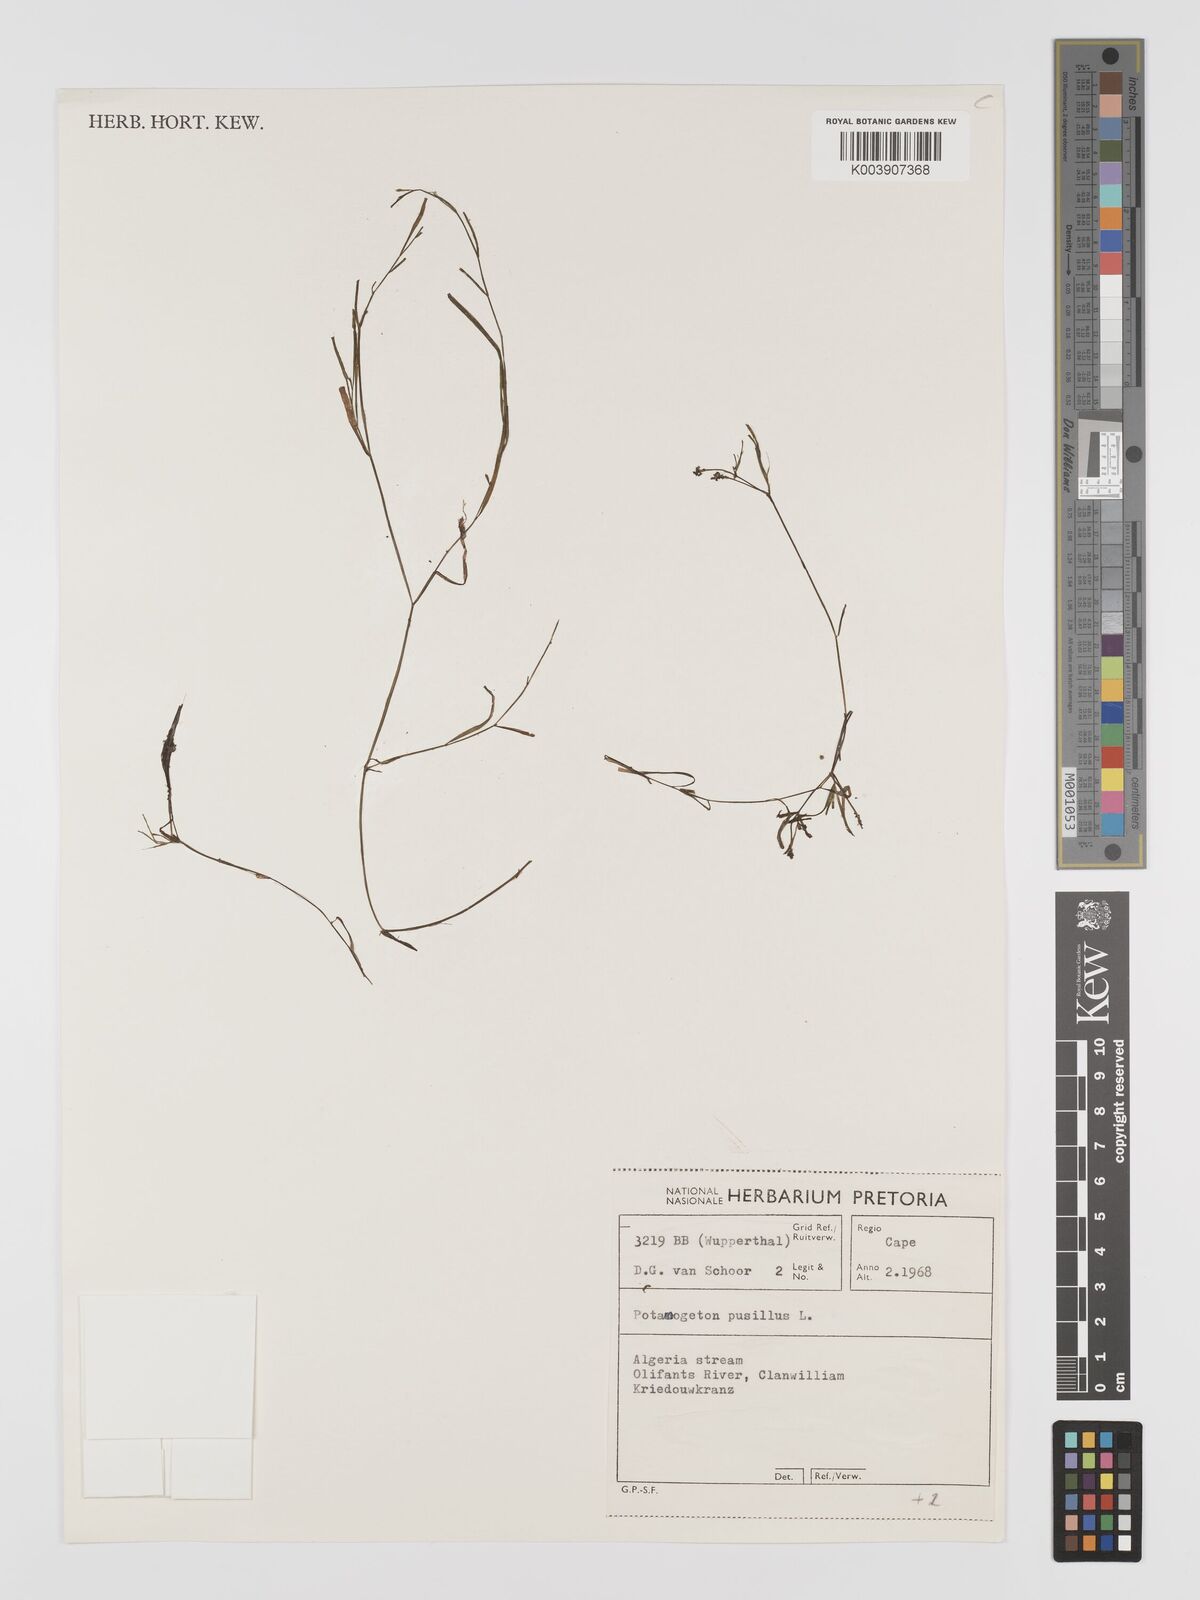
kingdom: Plantae
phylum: Tracheophyta
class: Liliopsida
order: Alismatales
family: Potamogetonaceae
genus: Potamogeton
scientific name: Potamogeton pusillus
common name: Lesser pondweed
